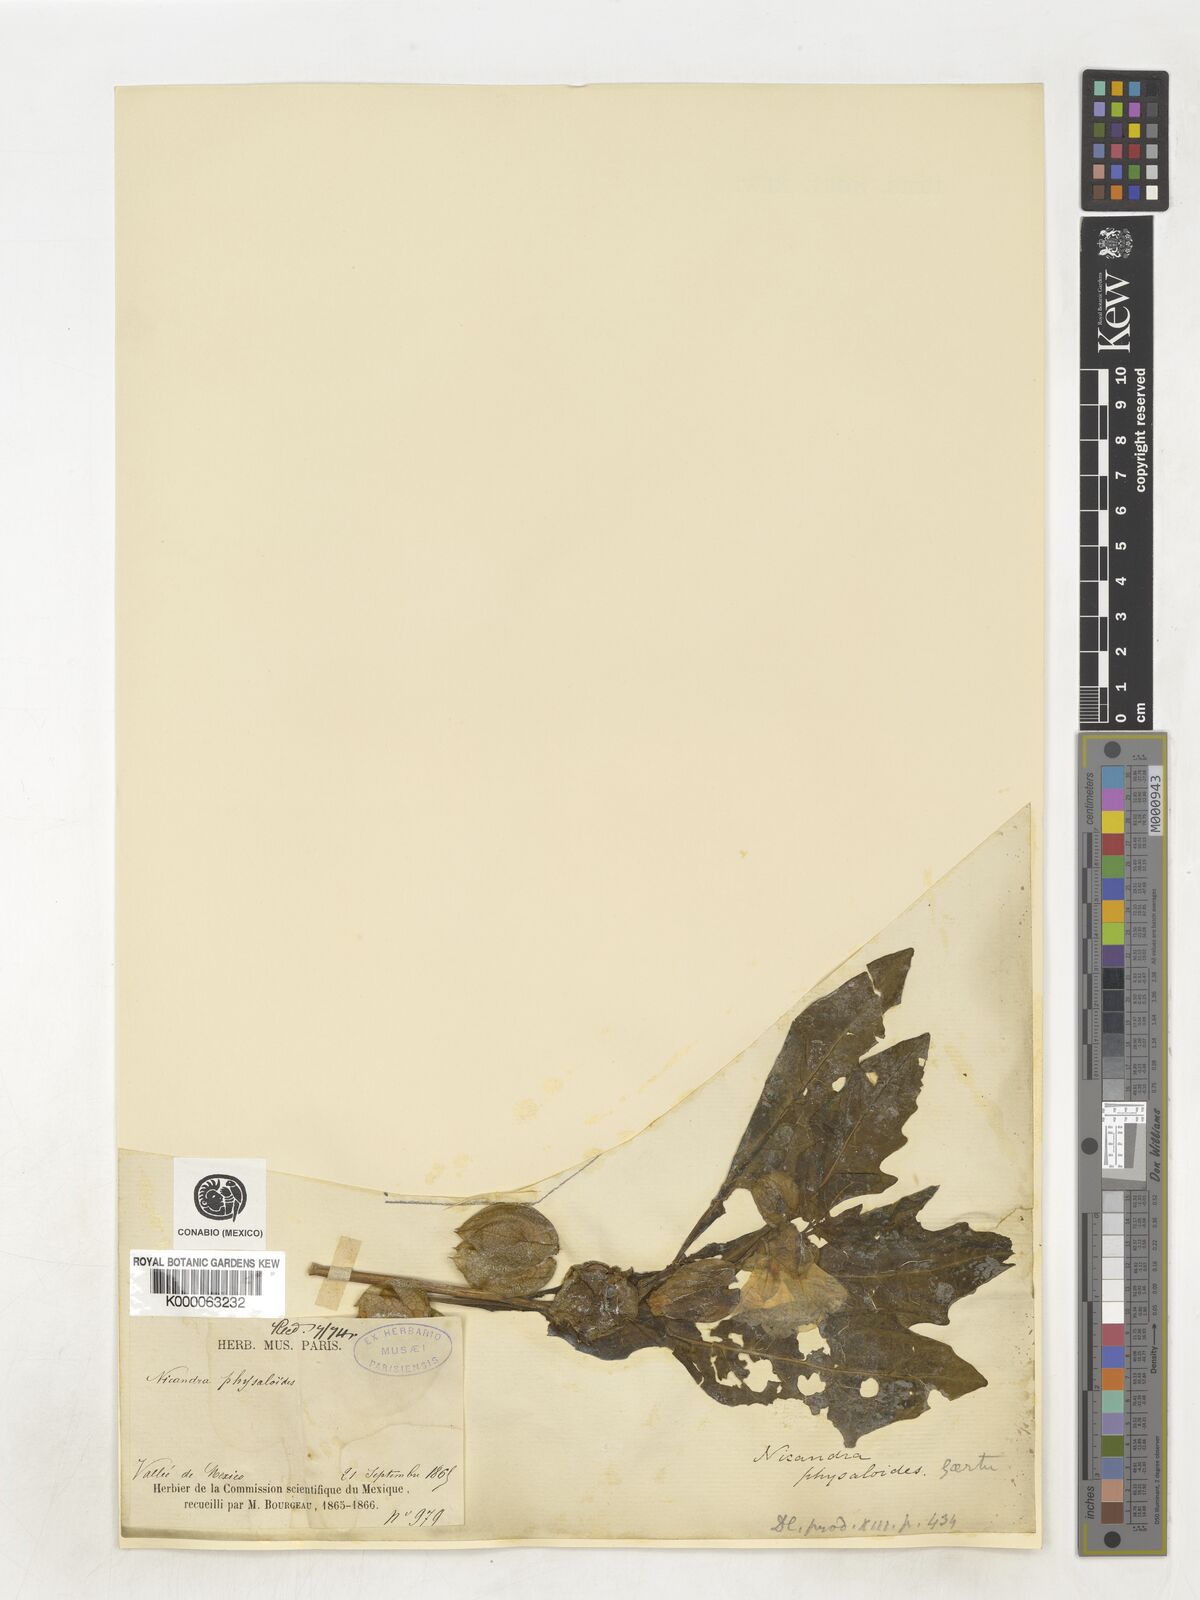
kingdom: Plantae
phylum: Tracheophyta
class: Magnoliopsida
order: Solanales
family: Solanaceae
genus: Nicandra
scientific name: Nicandra
